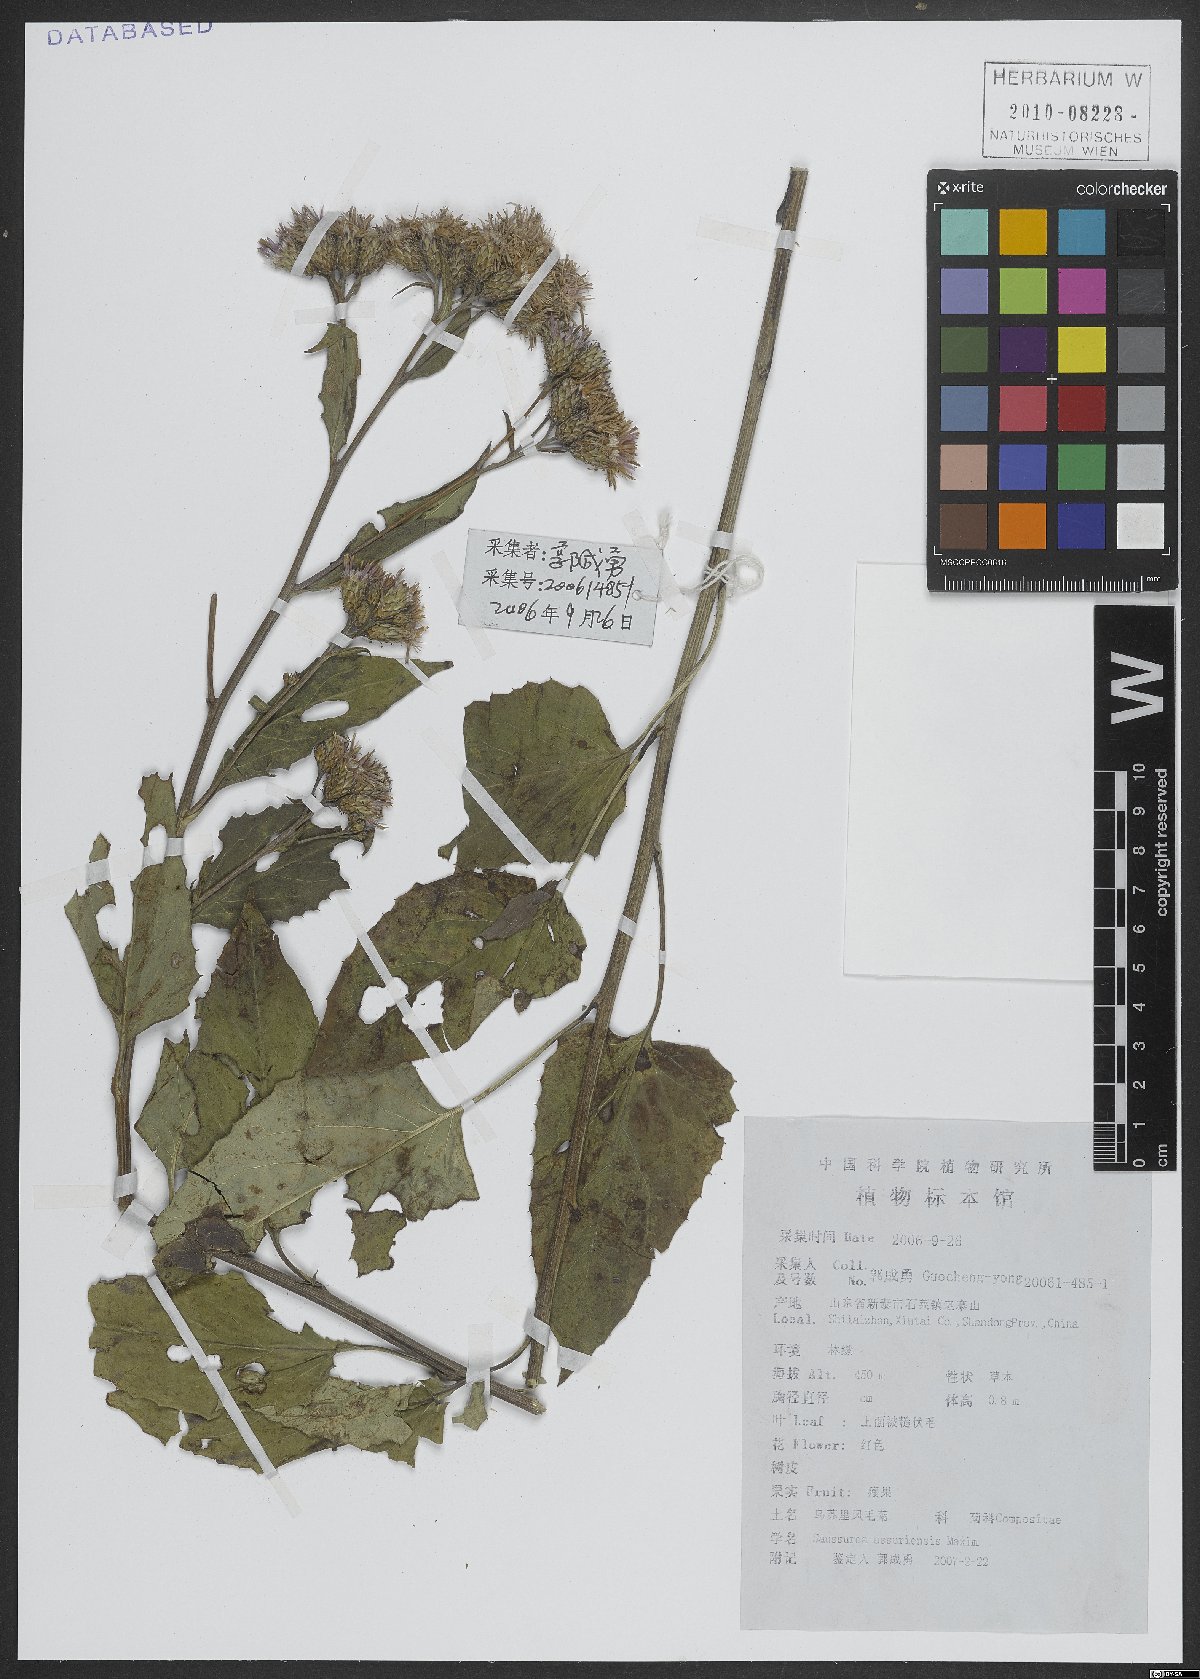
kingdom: Plantae
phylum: Tracheophyta
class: Magnoliopsida
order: Asterales
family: Asteraceae
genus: Saussurea
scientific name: Saussurea ussuriensis
